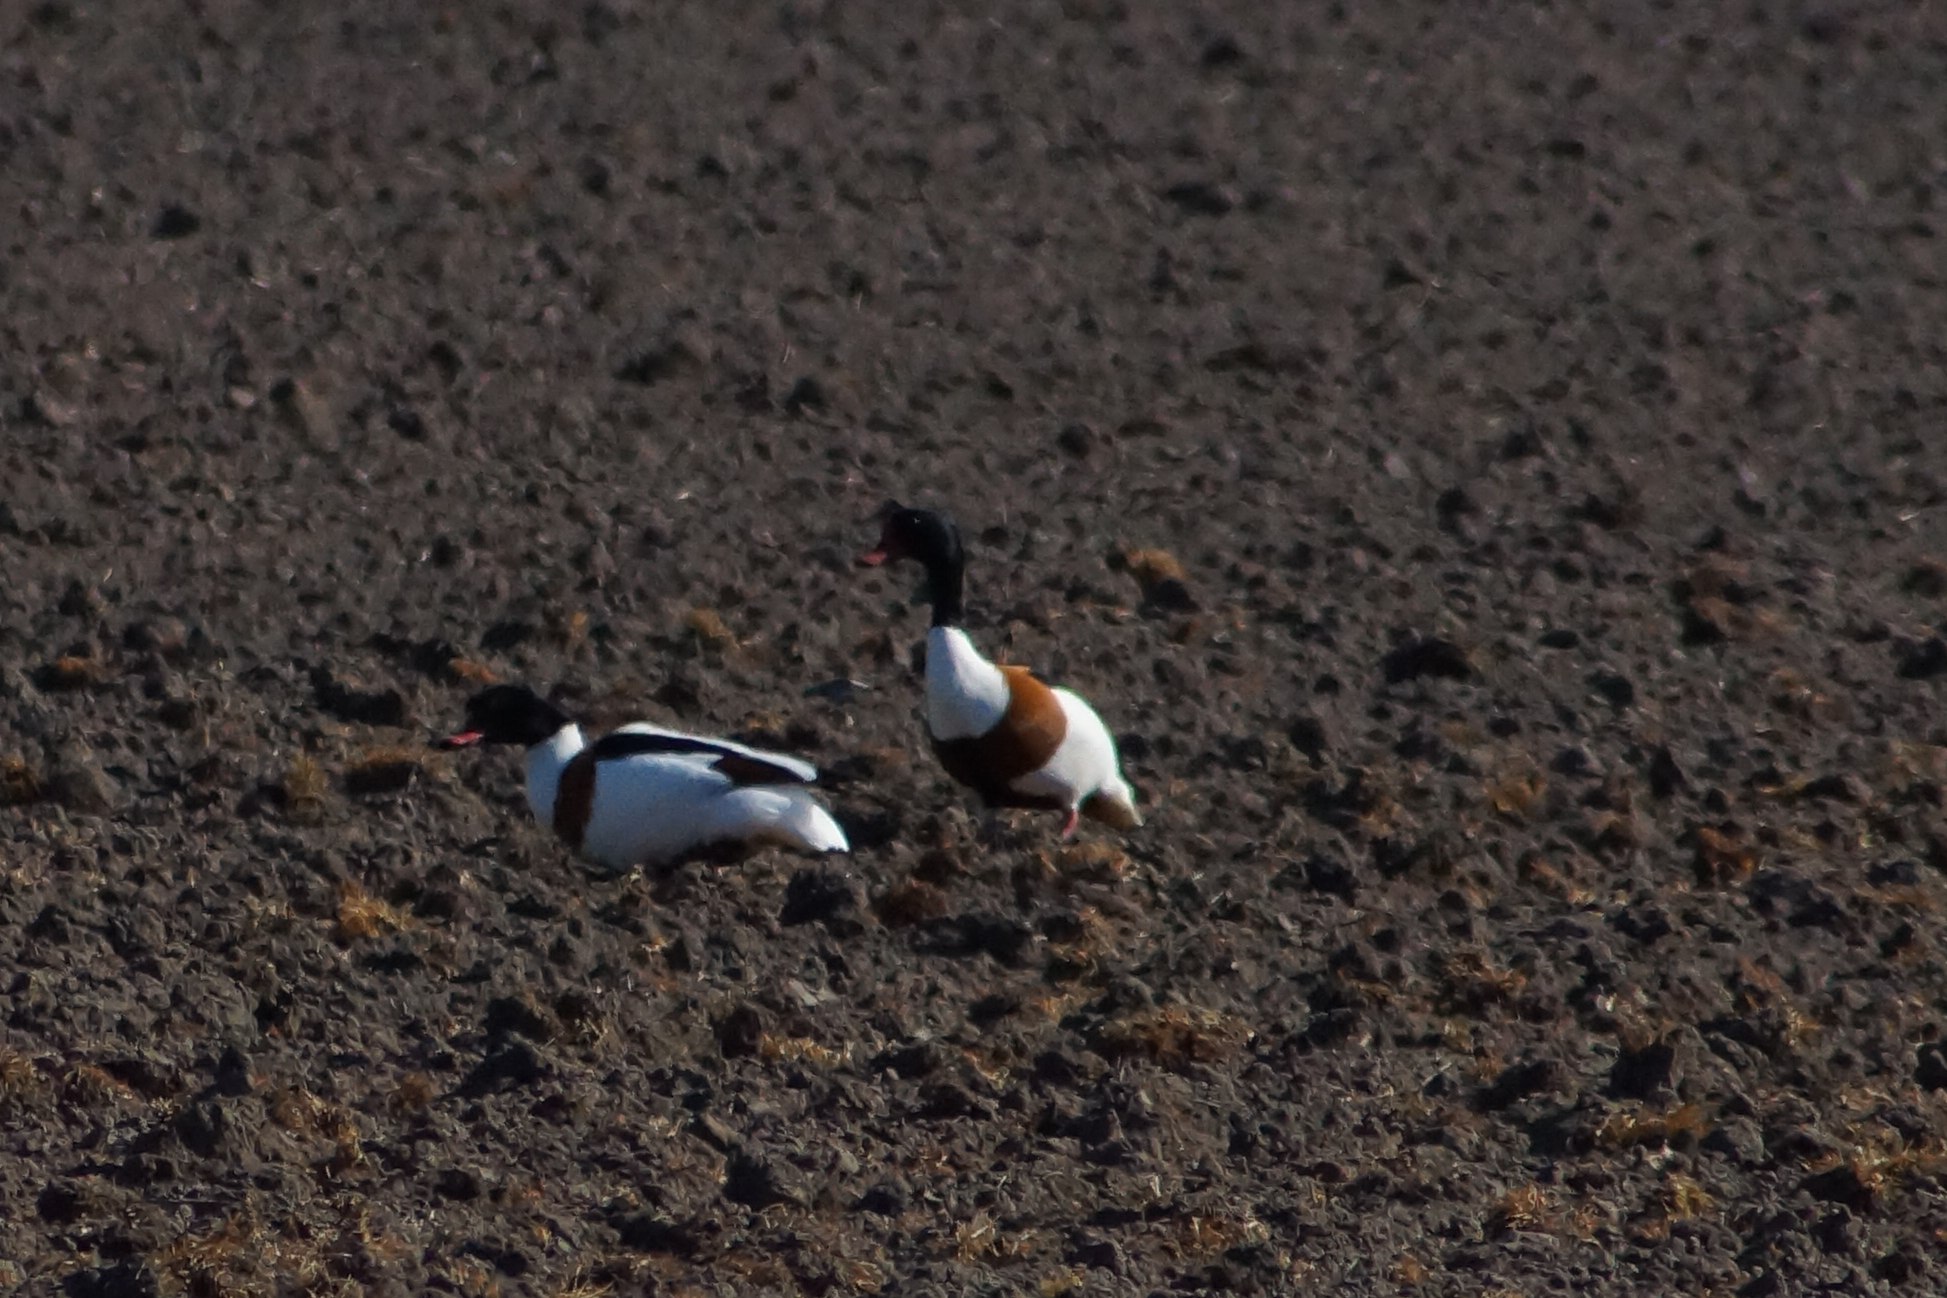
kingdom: Animalia
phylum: Chordata
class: Aves
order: Anseriformes
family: Anatidae
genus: Tadorna
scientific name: Tadorna tadorna
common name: Gravand
